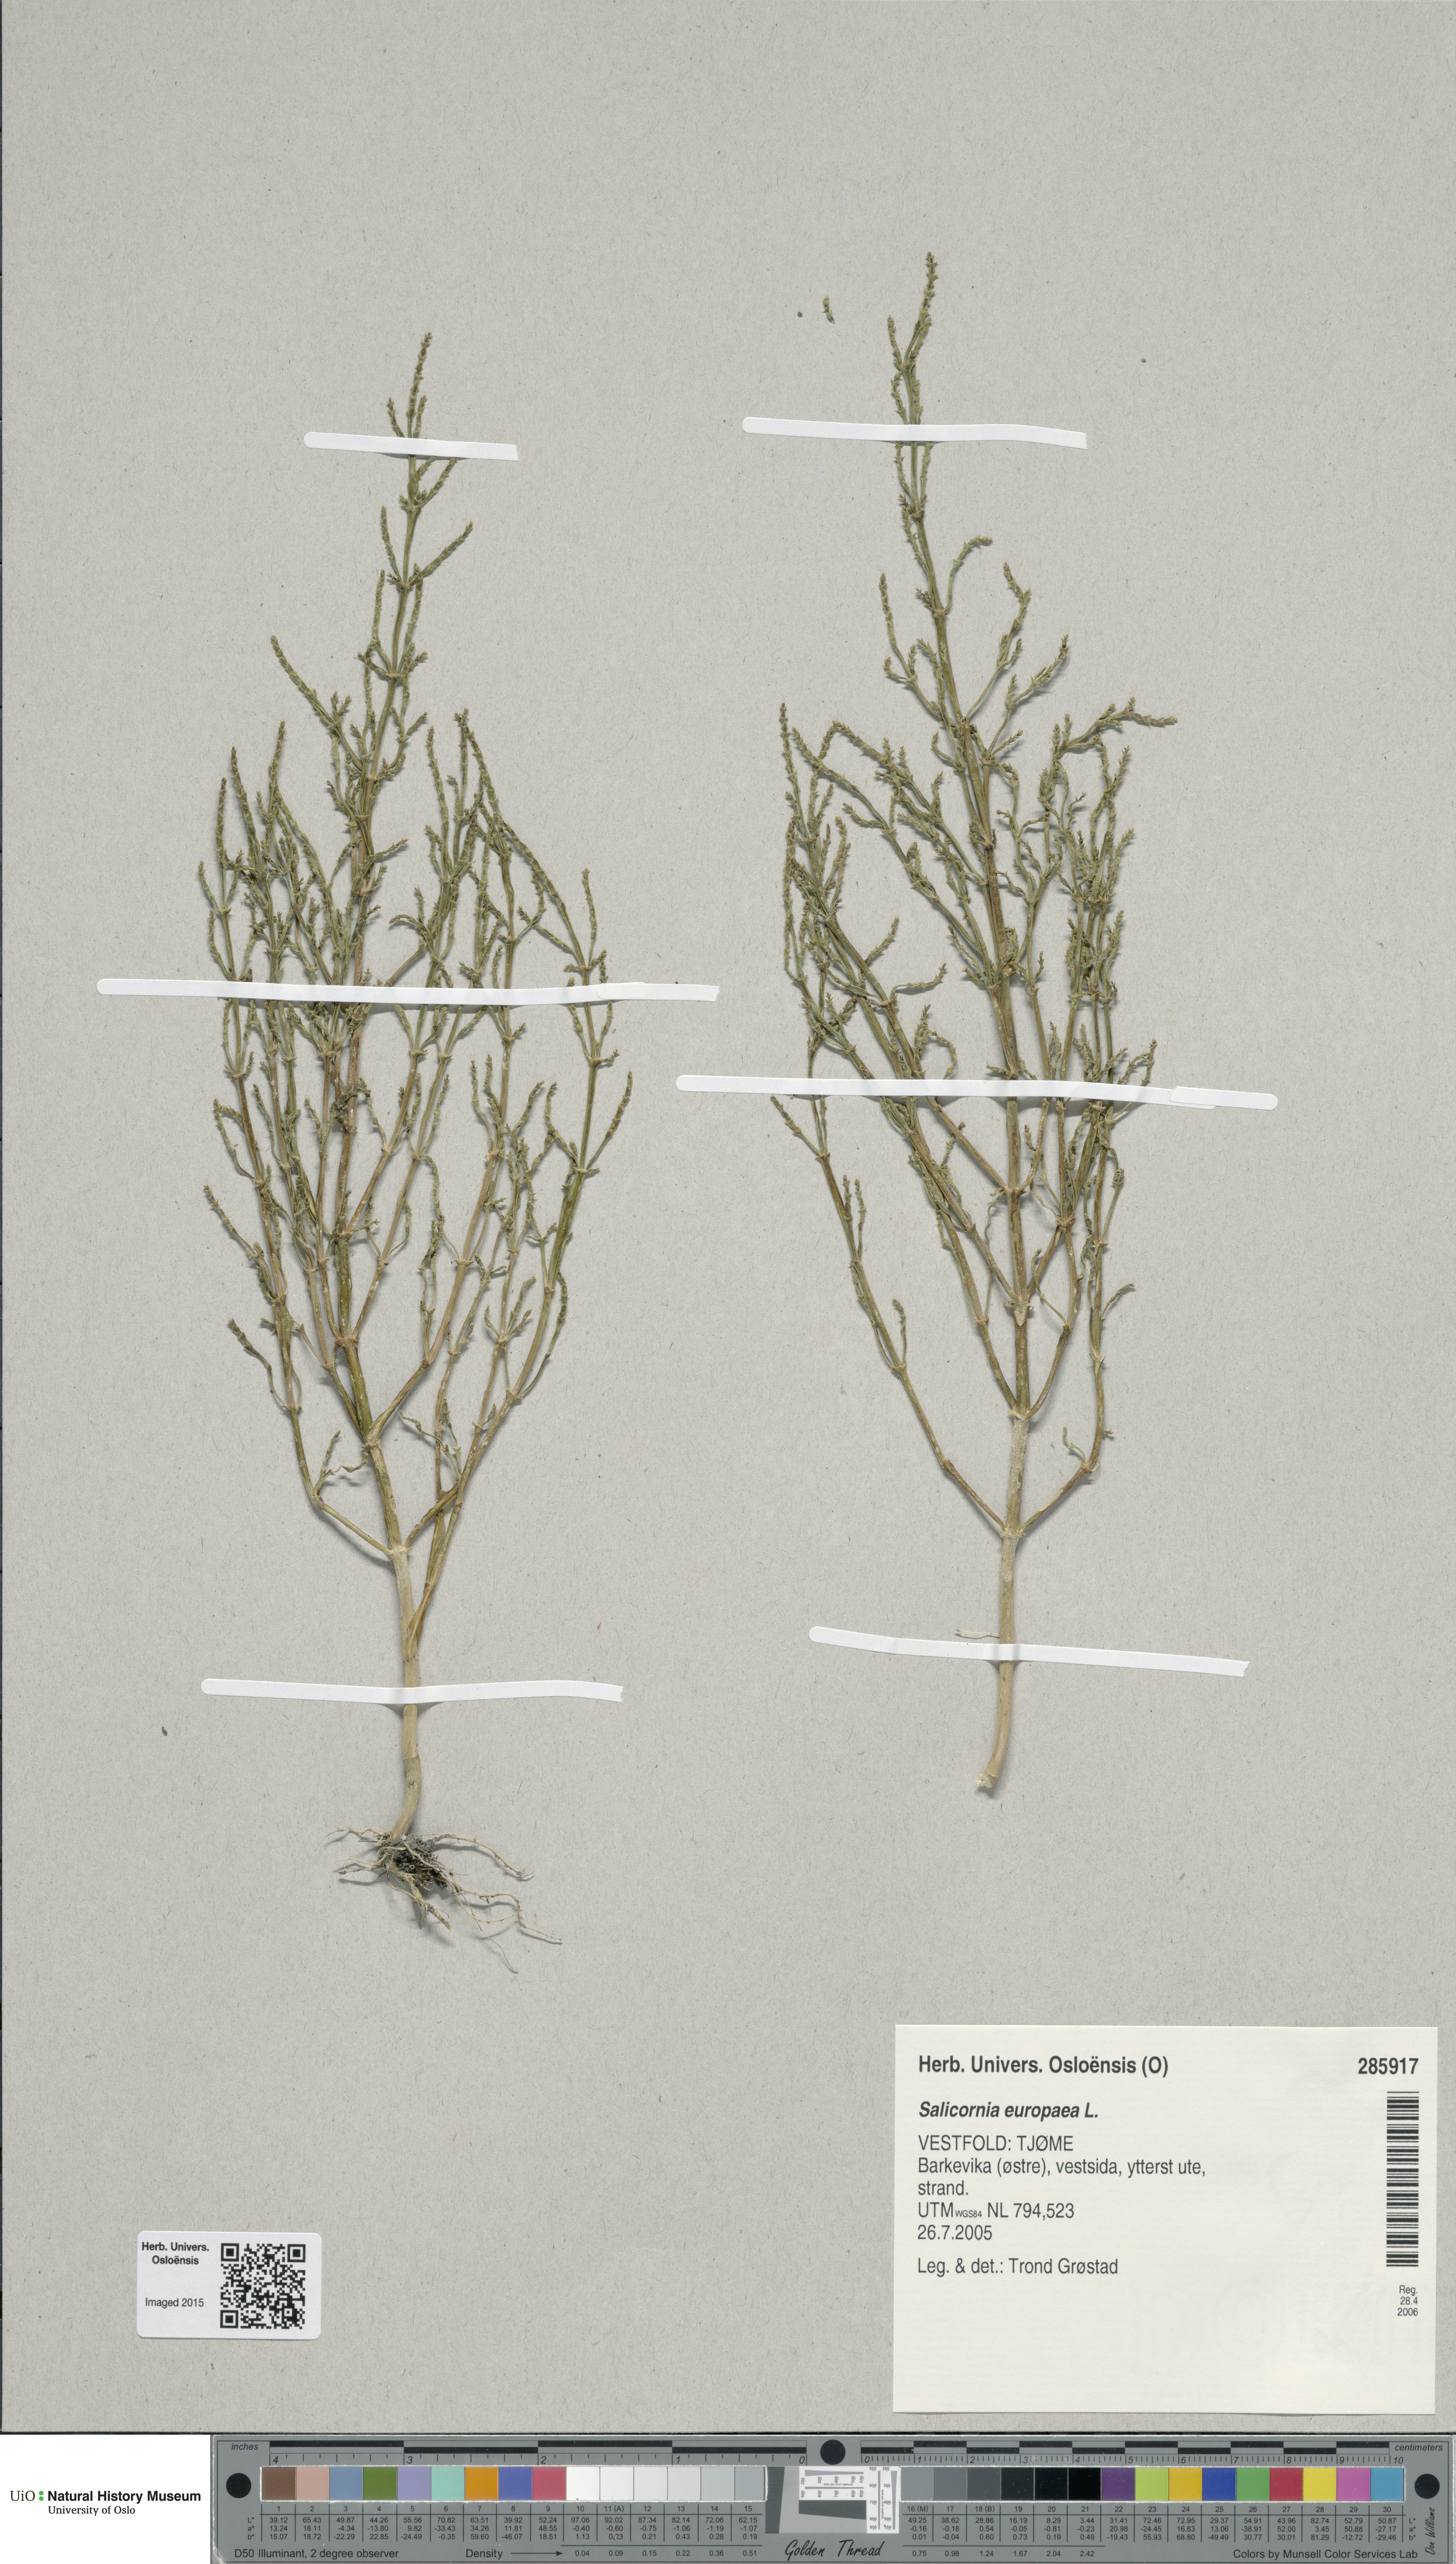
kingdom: Plantae
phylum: Tracheophyta
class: Magnoliopsida
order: Caryophyllales
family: Amaranthaceae
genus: Salicornia
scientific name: Salicornia europaea
